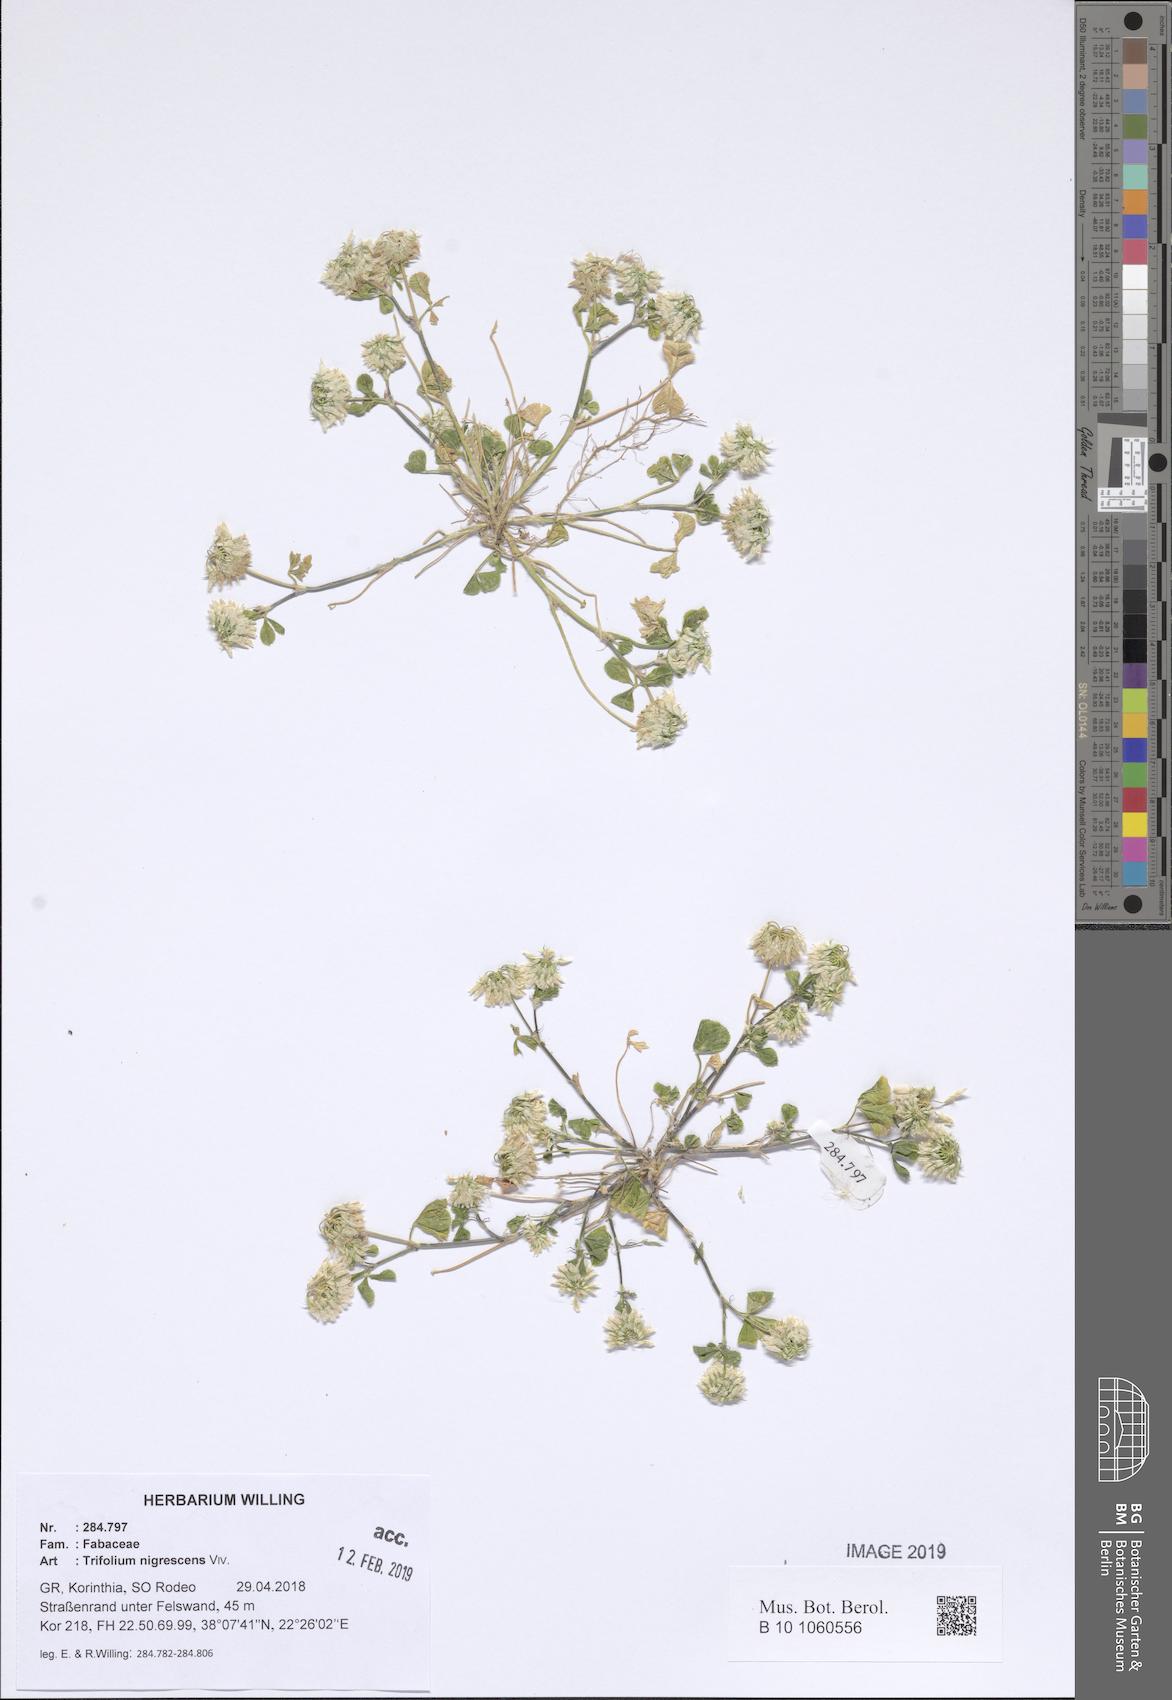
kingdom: Plantae
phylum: Tracheophyta
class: Magnoliopsida
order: Fabales
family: Fabaceae
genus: Trifolium
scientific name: Trifolium nigrescens
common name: Small white clover
